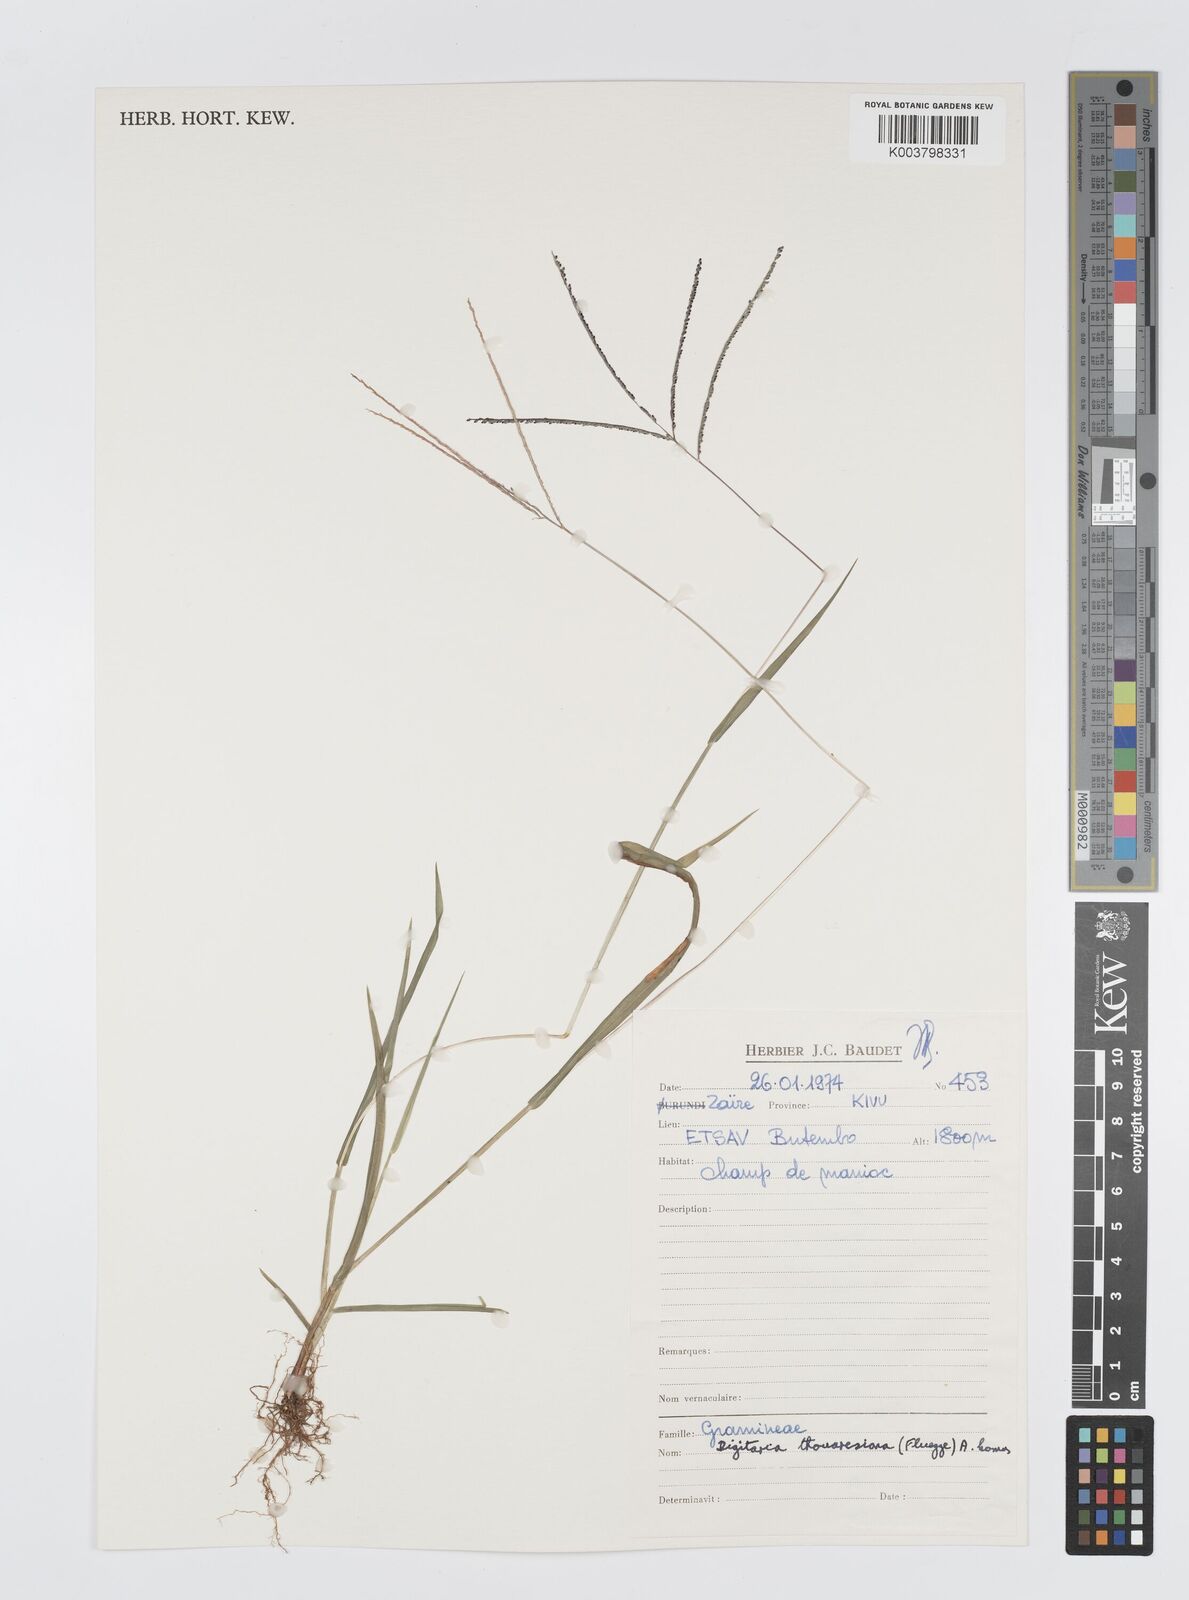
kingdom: Plantae
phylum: Tracheophyta
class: Liliopsida
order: Poales
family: Poaceae
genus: Digitaria
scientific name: Digitaria thouarsiana
